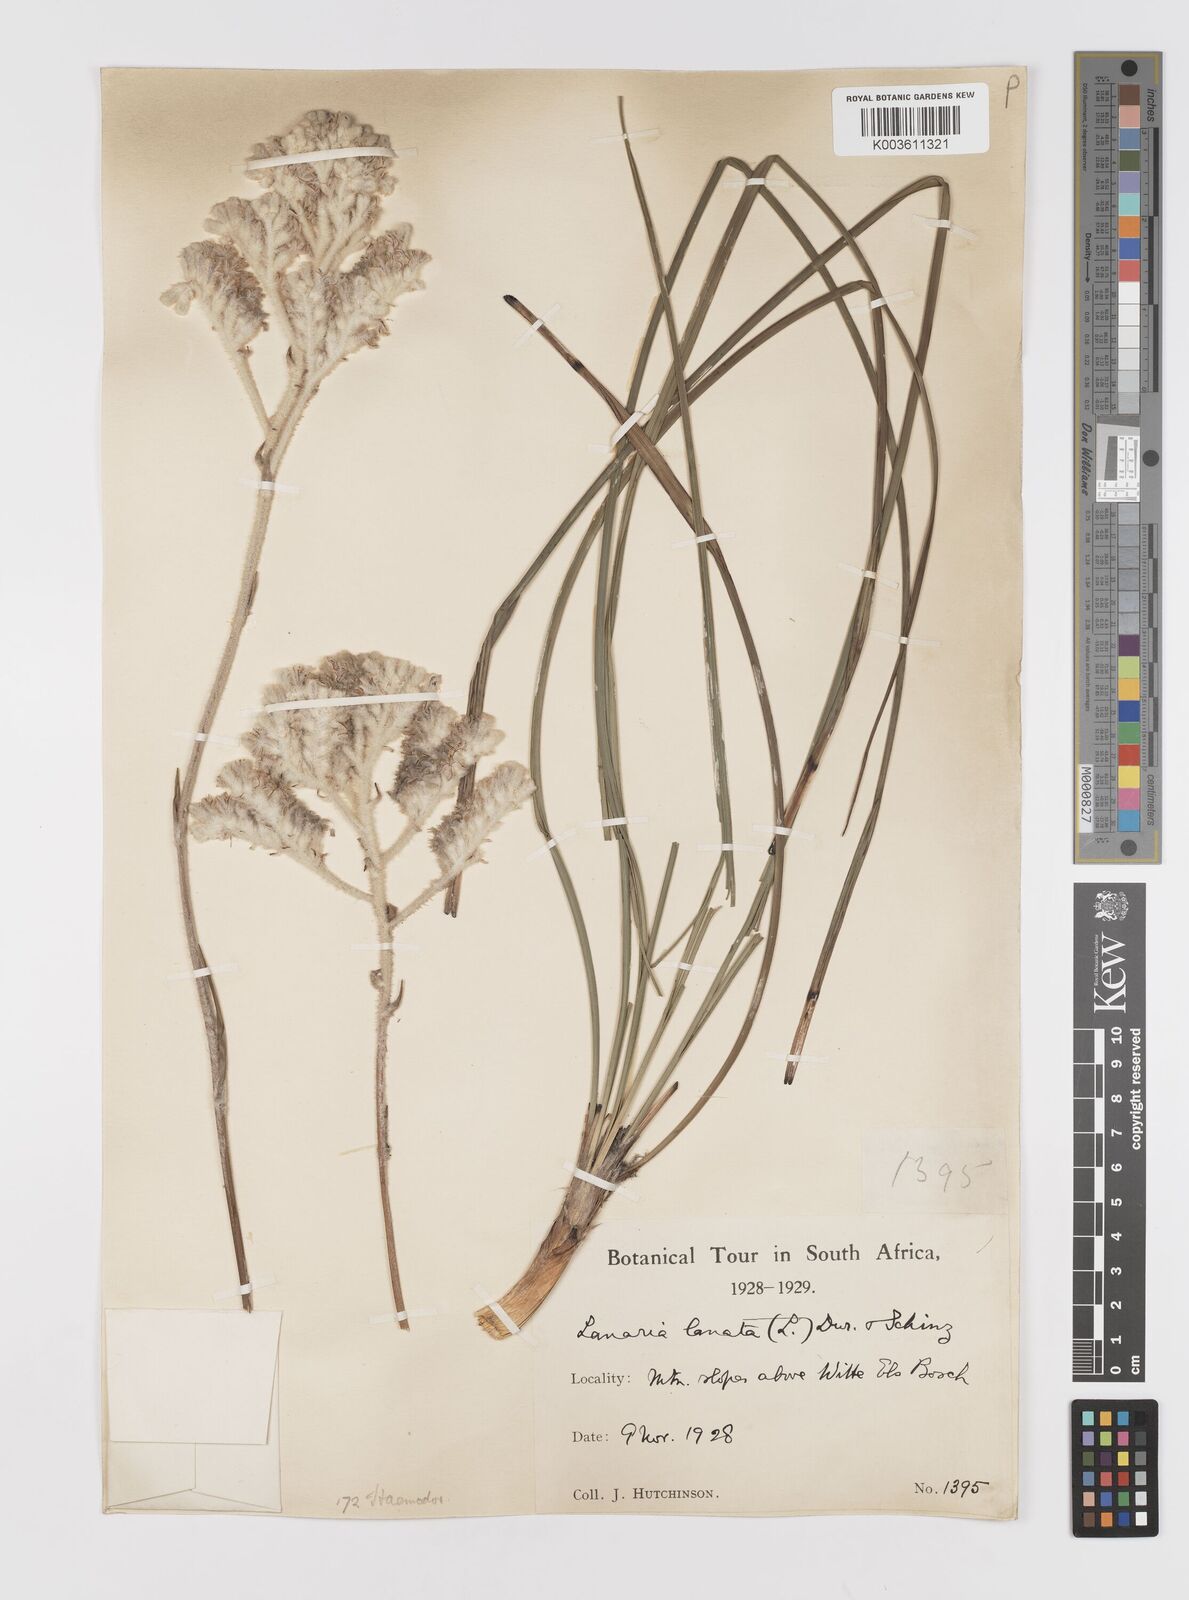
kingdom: Plantae
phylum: Tracheophyta
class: Liliopsida
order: Asparagales
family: Lanariaceae
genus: Lanaria
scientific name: Lanaria lanata
